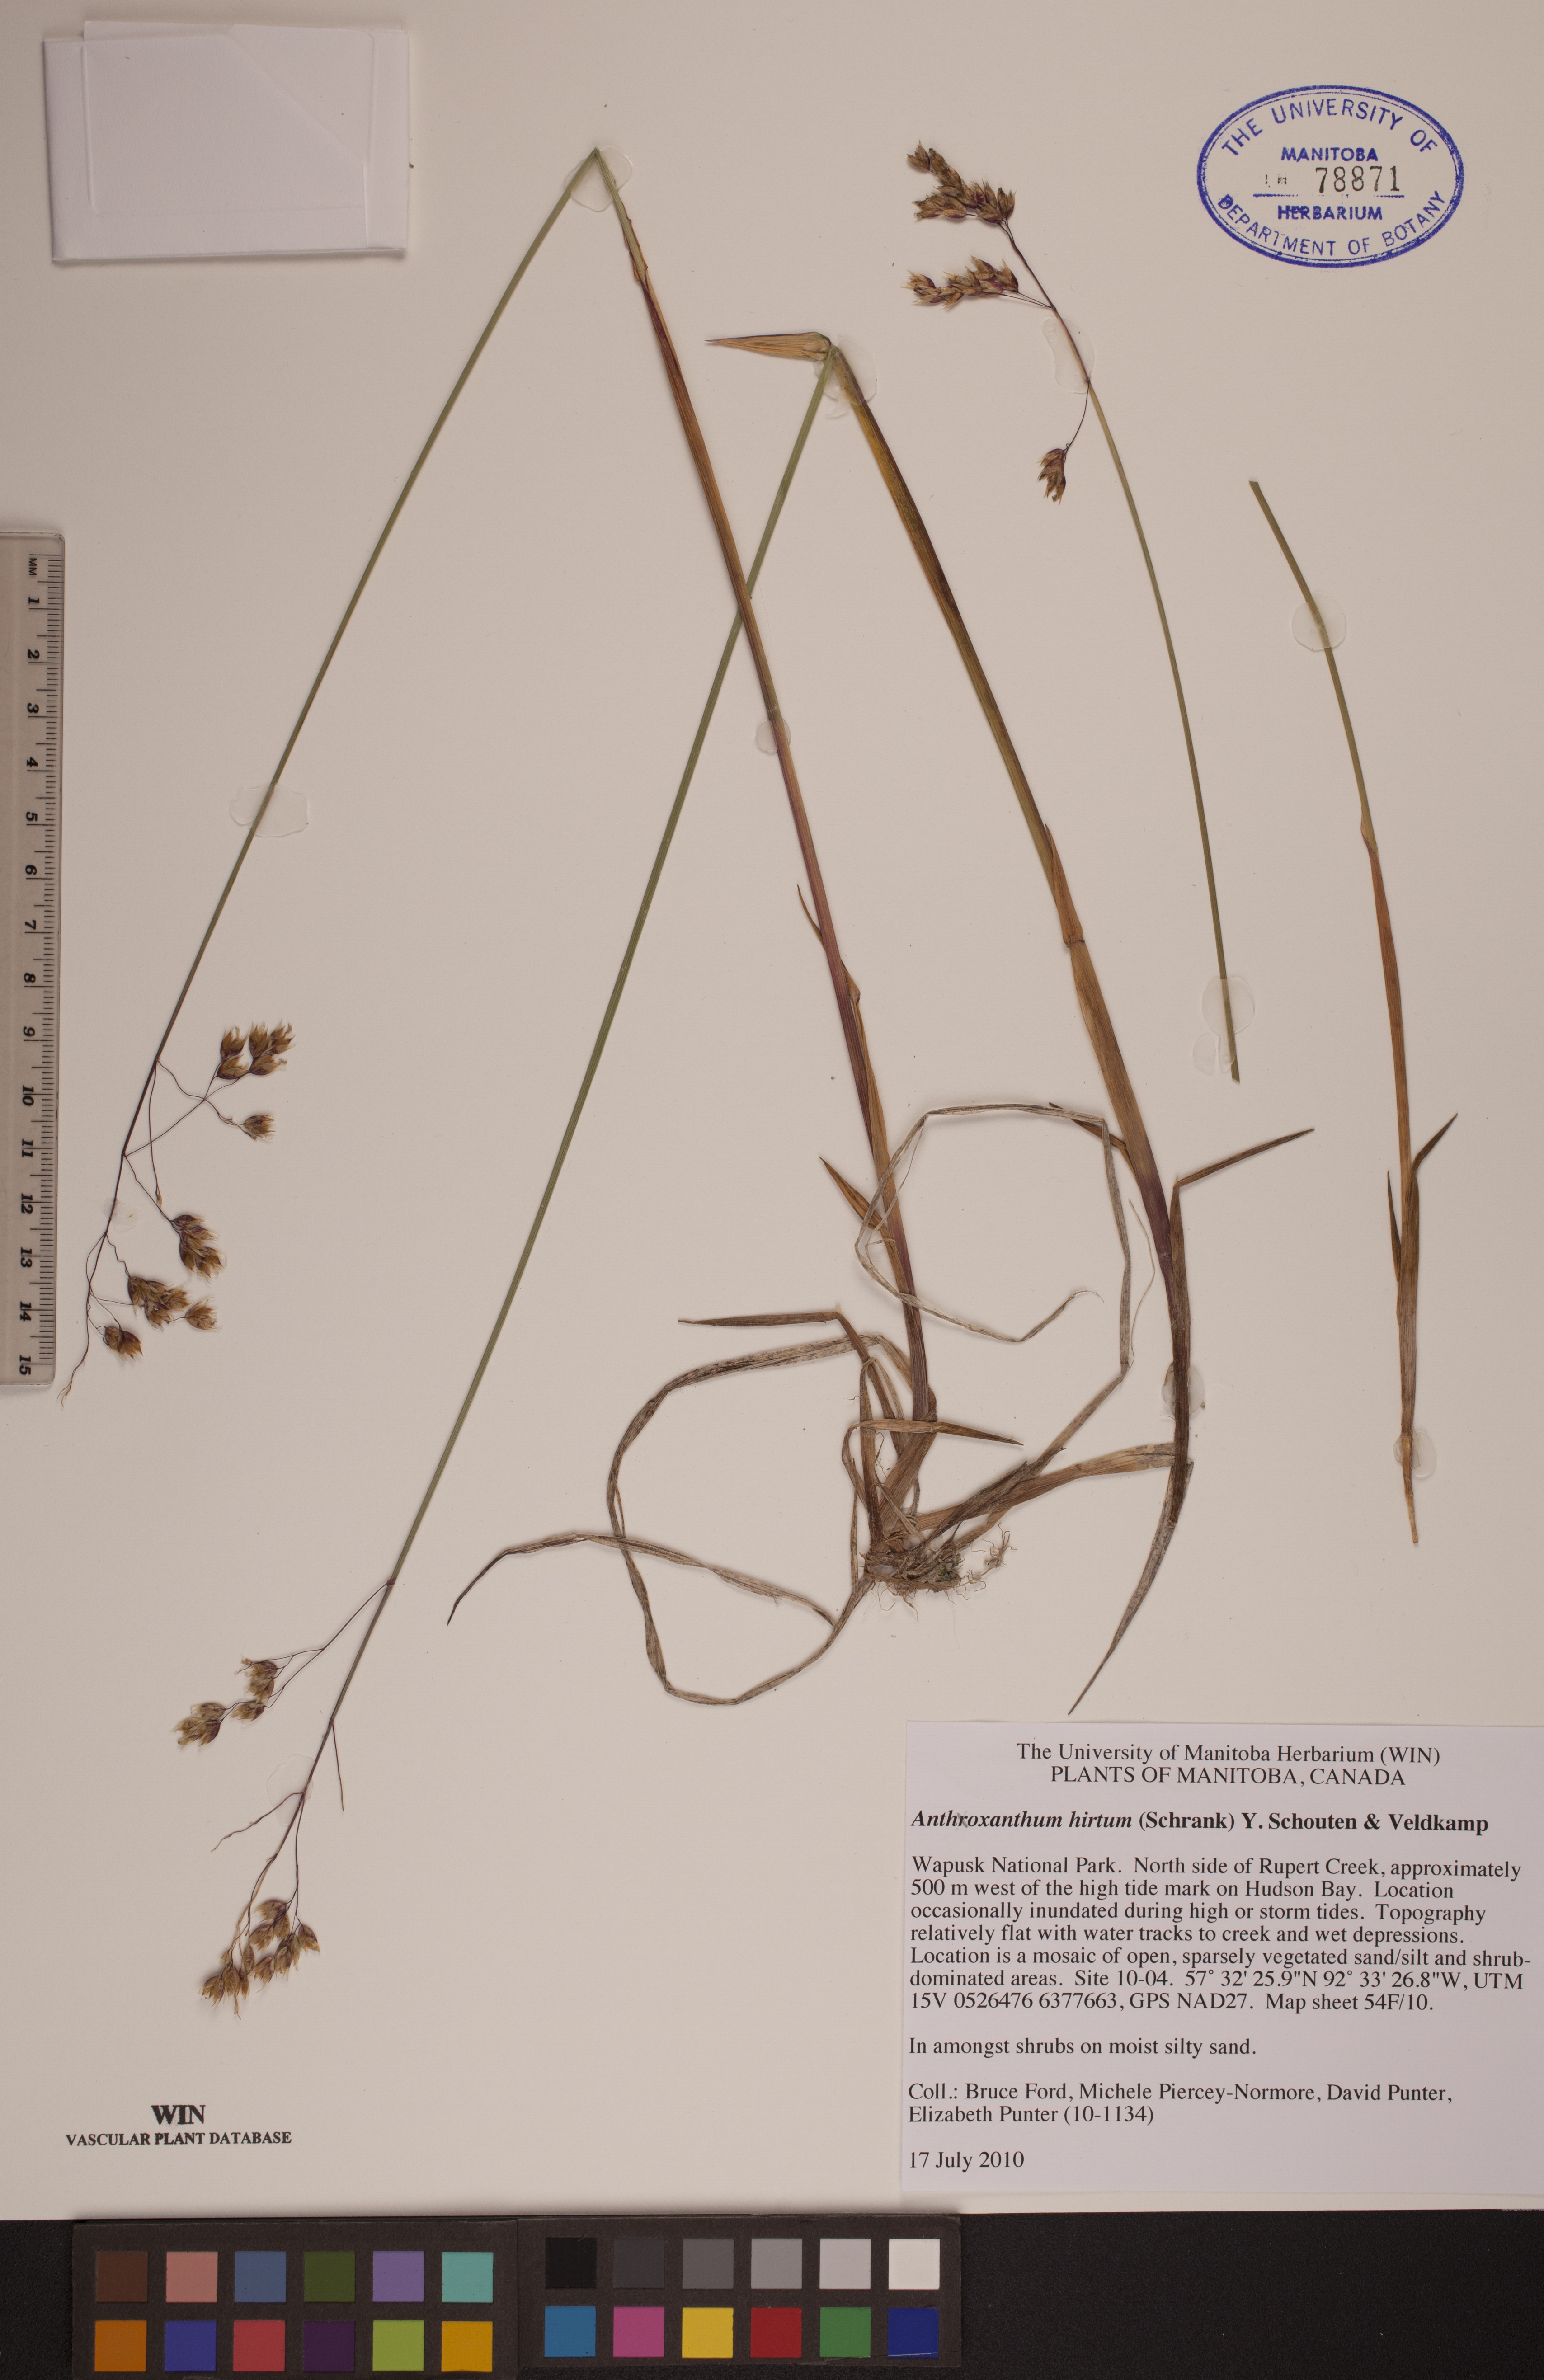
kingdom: Plantae
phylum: Tracheophyta
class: Liliopsida
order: Poales
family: Poaceae
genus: Anthoxanthum
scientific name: Anthoxanthum nitens
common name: Holy grass
